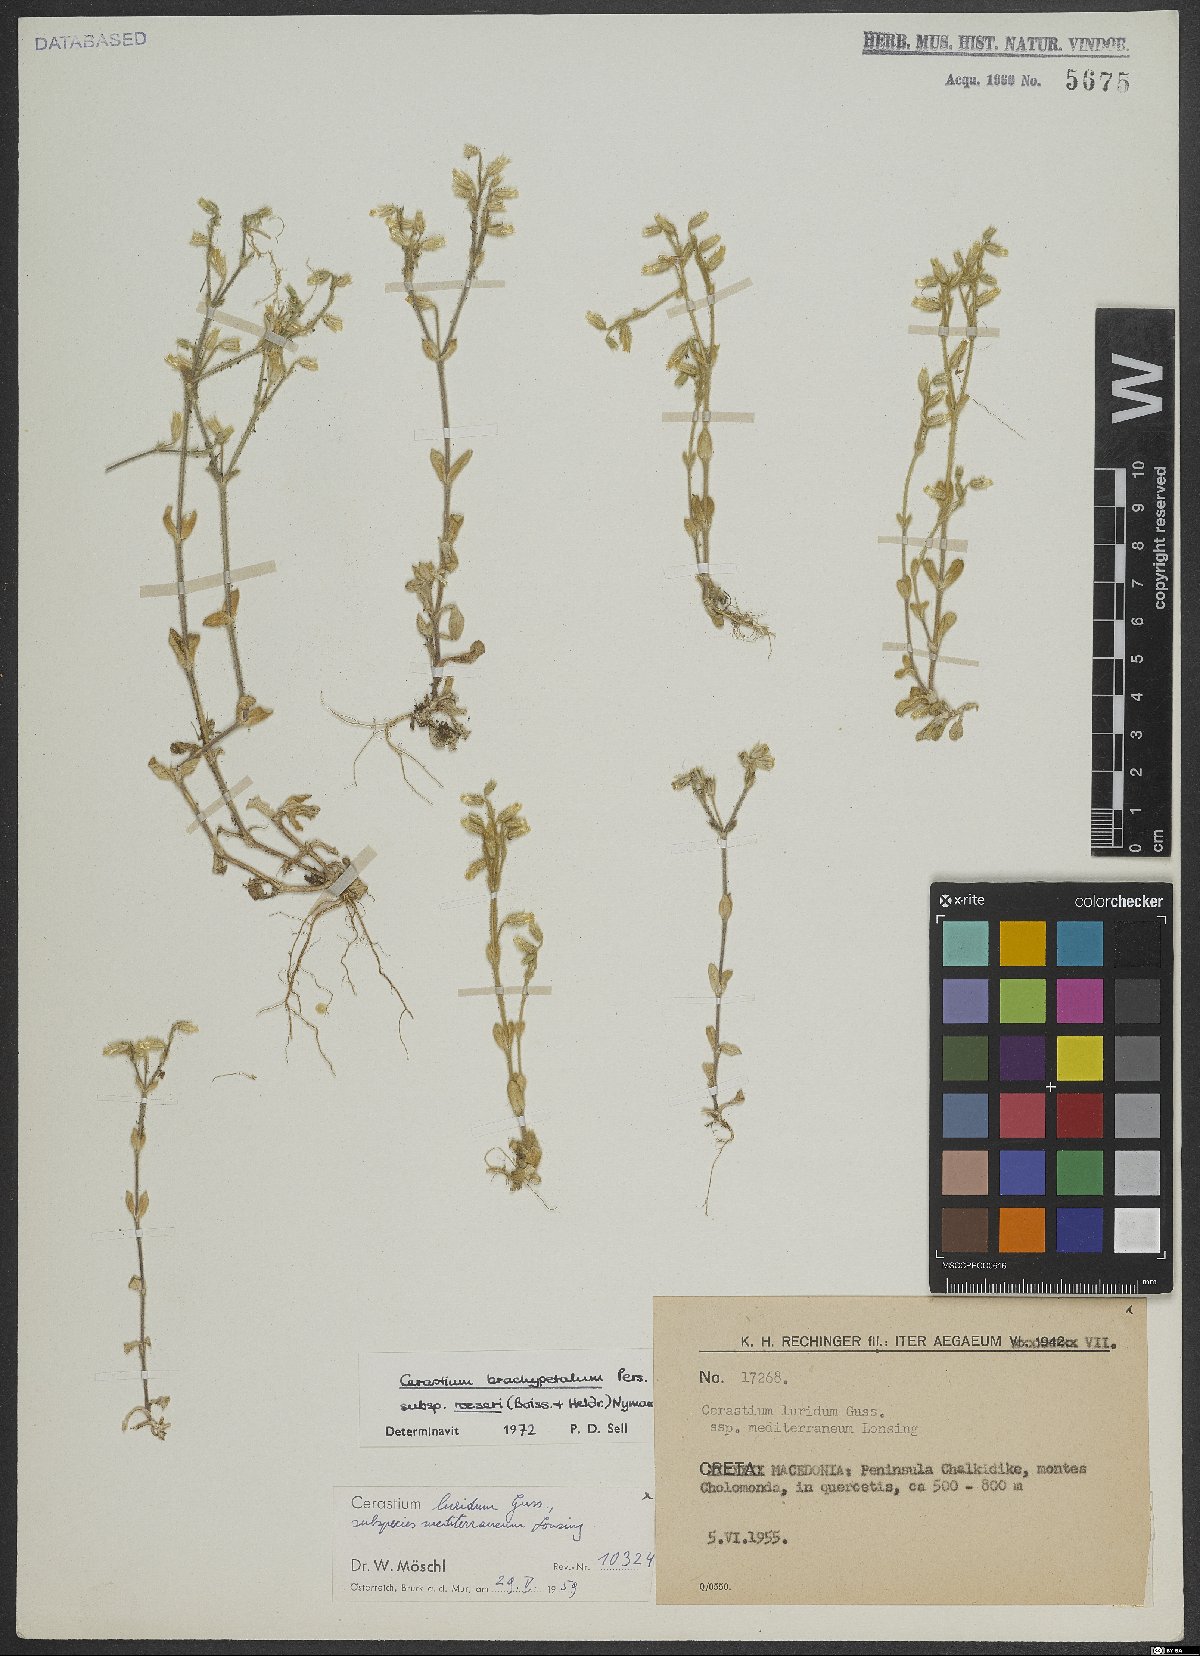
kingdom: Plantae
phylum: Tracheophyta
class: Magnoliopsida
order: Caryophyllales
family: Caryophyllaceae
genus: Cerastium
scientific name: Cerastium brachypetalum
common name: Grey mouse-ear
